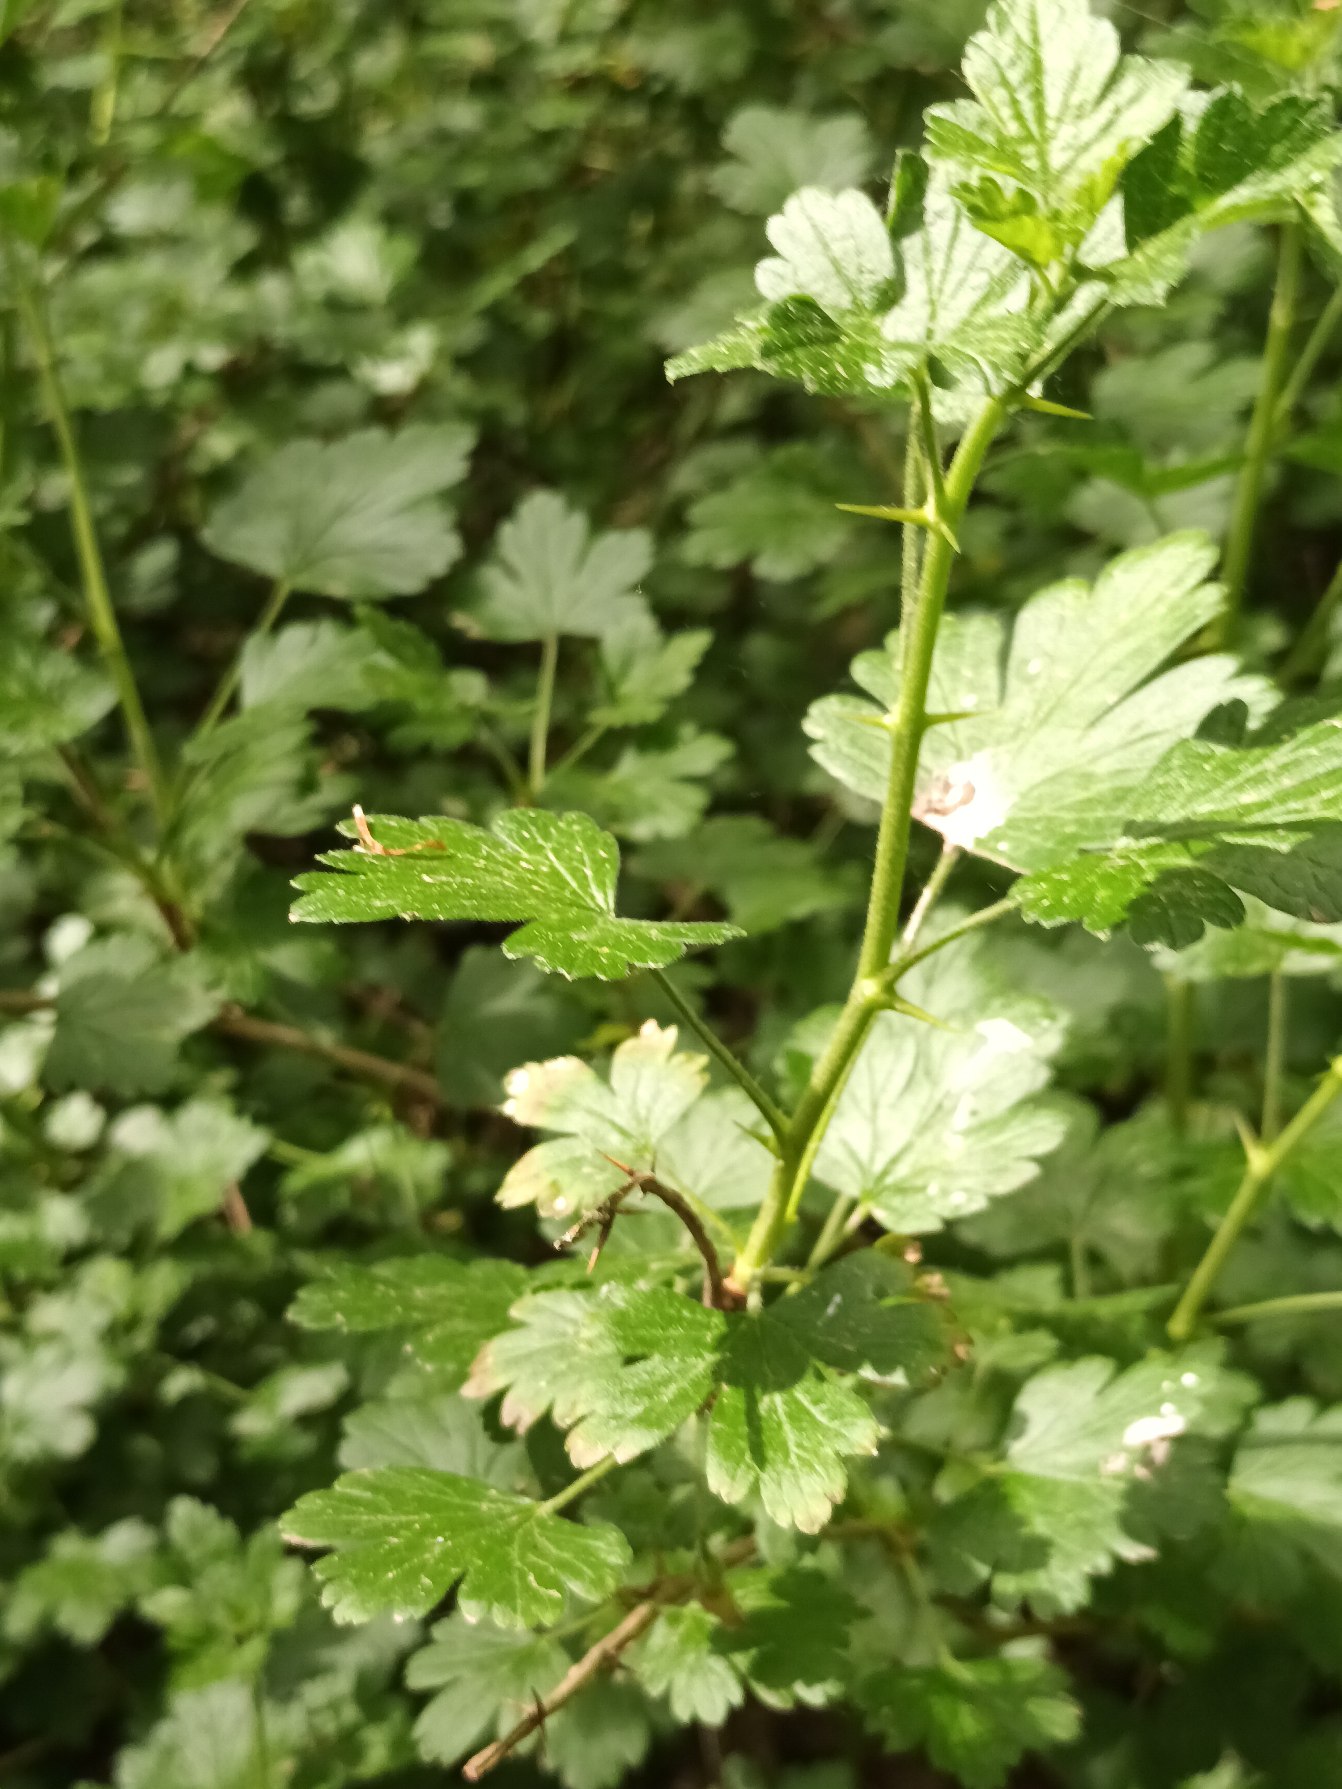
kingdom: Plantae
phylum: Tracheophyta
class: Magnoliopsida
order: Saxifragales
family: Grossulariaceae
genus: Ribes
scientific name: Ribes uva-crispa
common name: Stikkelsbær
